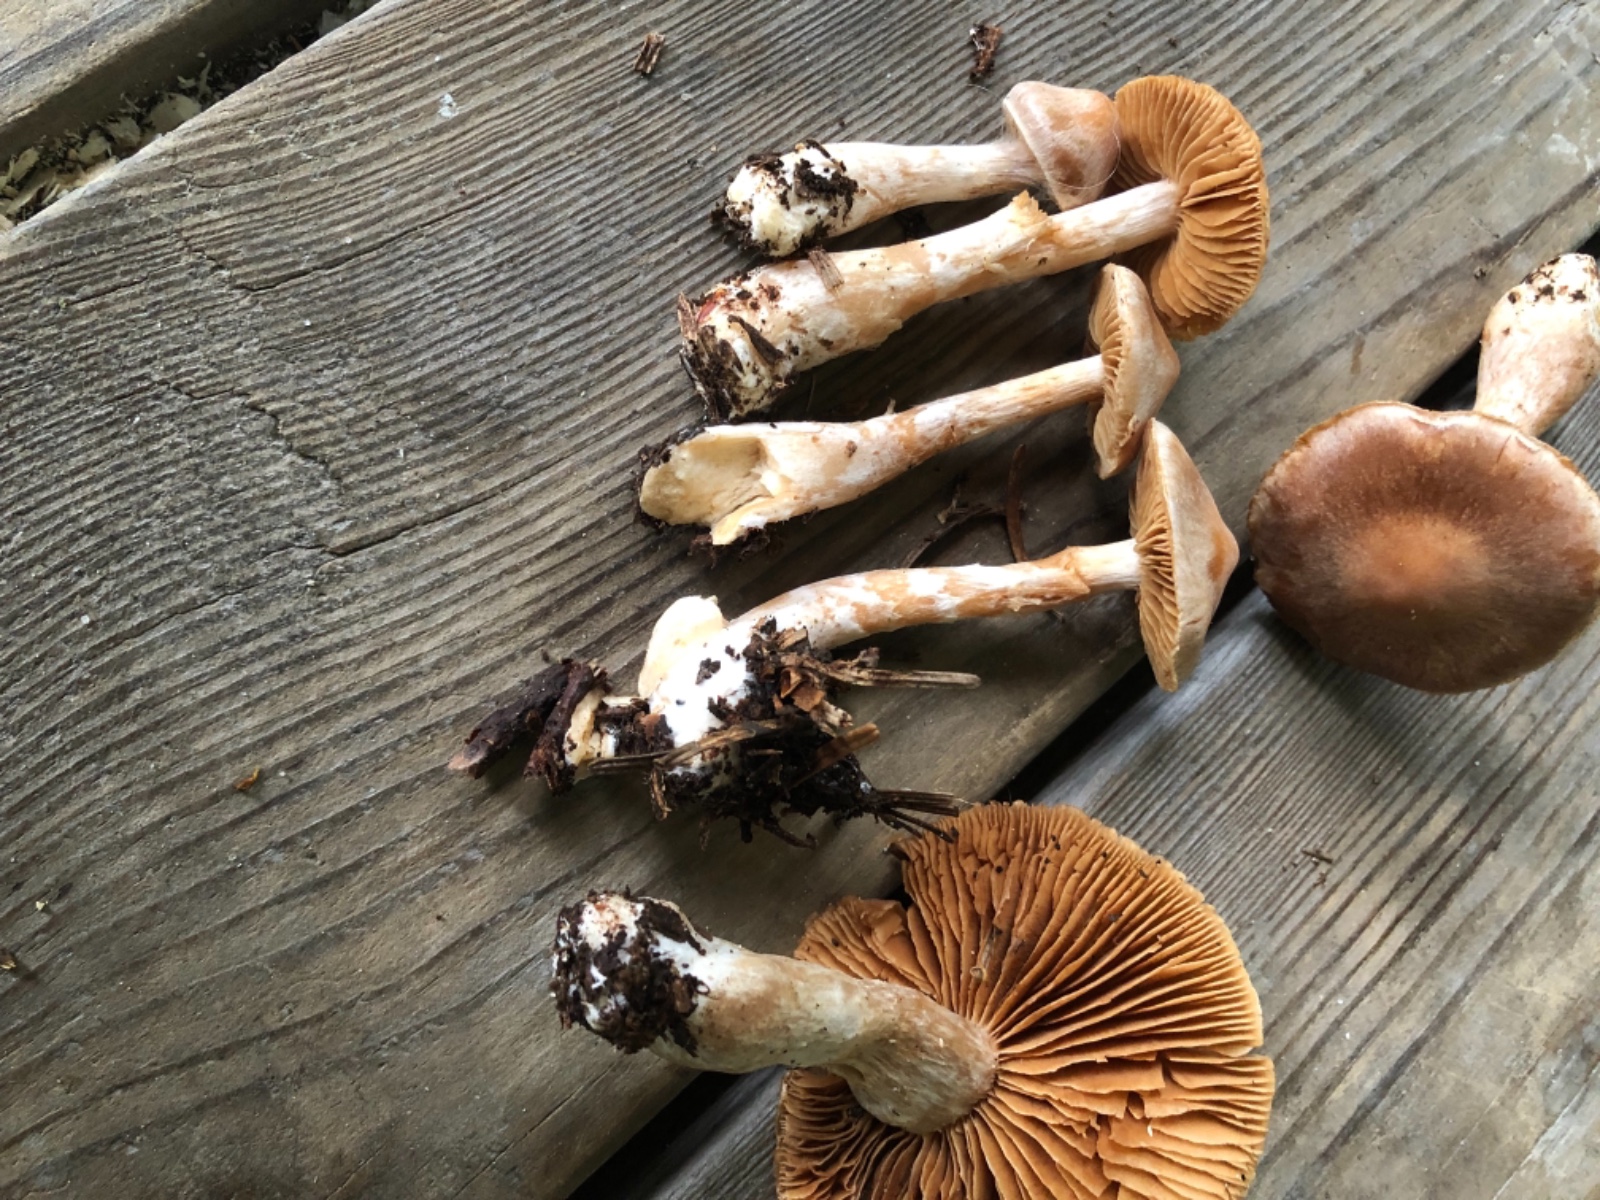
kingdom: Fungi
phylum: Basidiomycota
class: Agaricomycetes
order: Agaricales
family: Cortinariaceae
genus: Cortinarius
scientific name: Cortinarius
